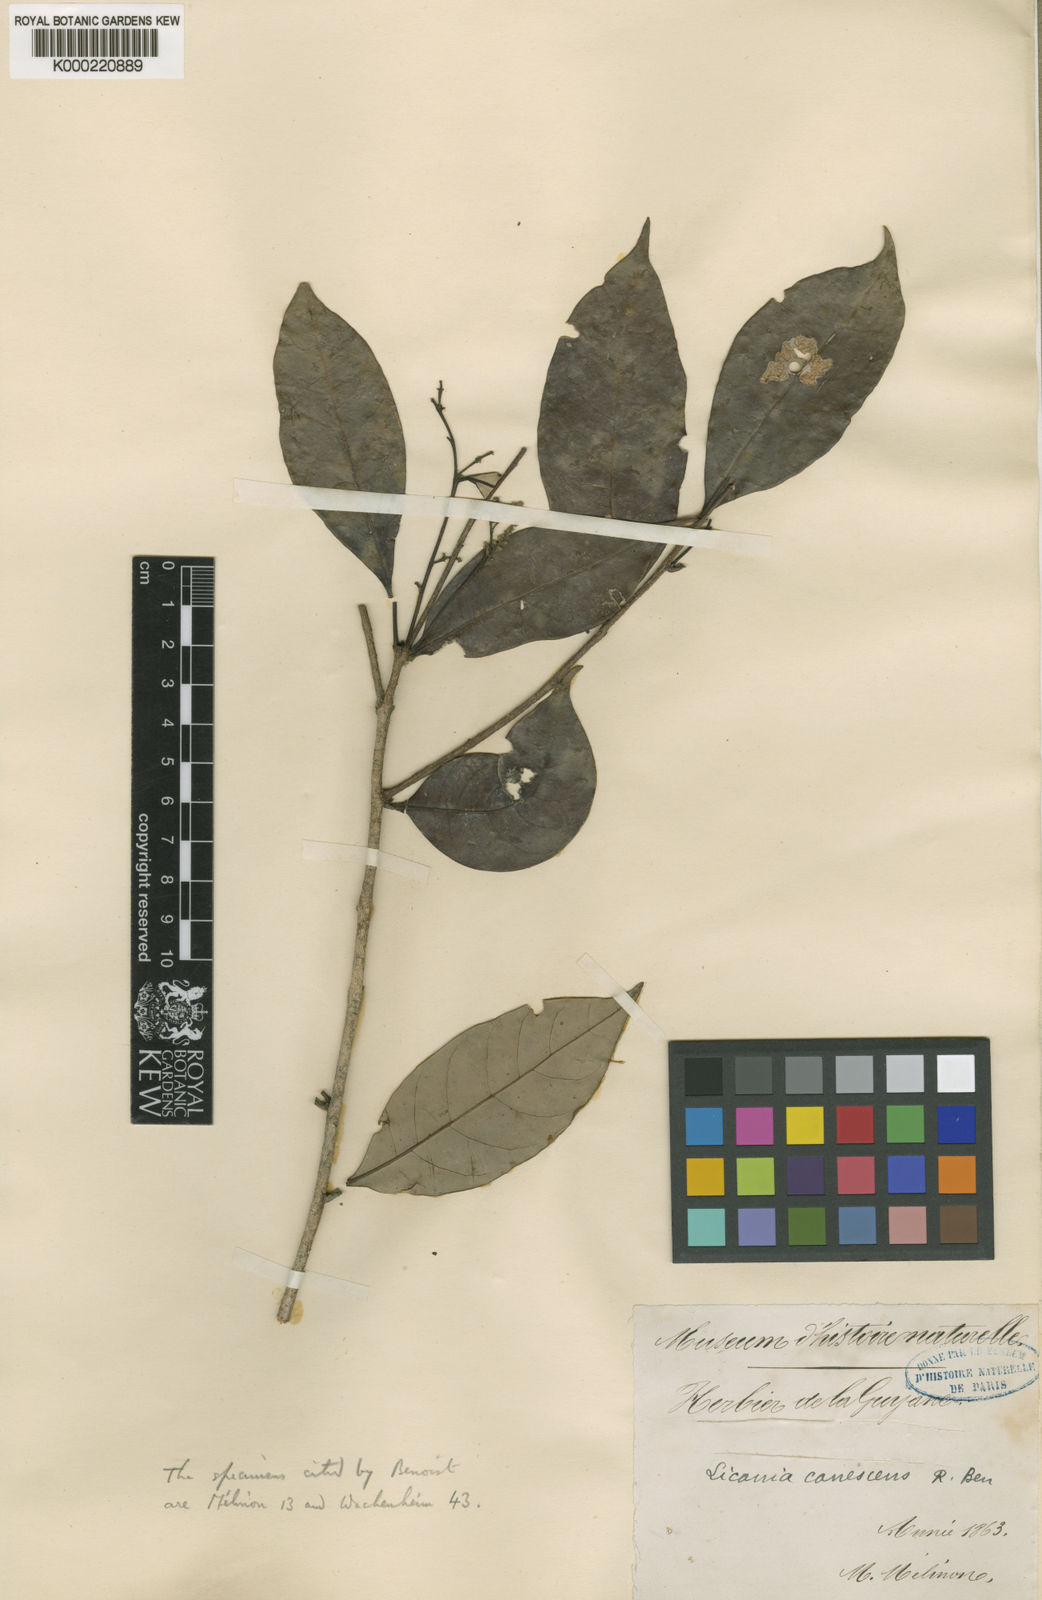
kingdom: Plantae
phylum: Tracheophyta
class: Magnoliopsida
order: Malpighiales
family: Chrysobalanaceae
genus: Licania
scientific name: Licania canescens
